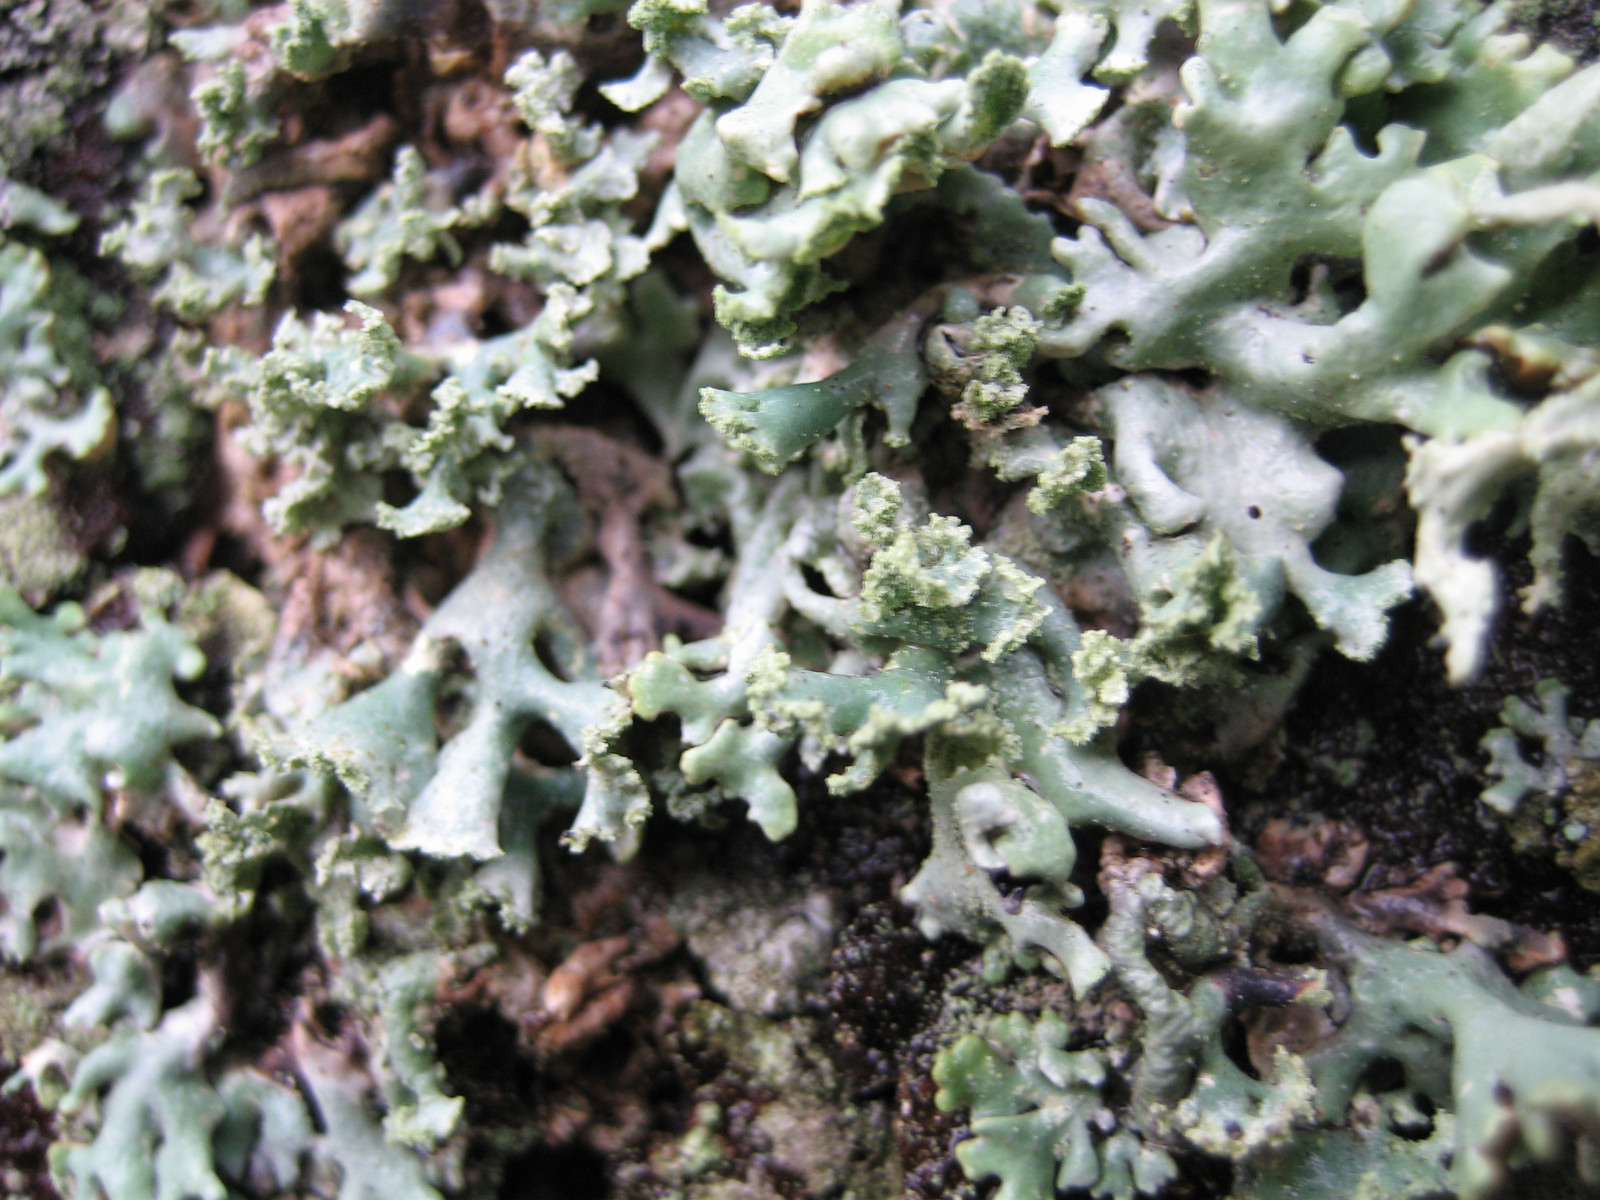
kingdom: Fungi
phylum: Ascomycota
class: Lecanoromycetes
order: Lecanorales
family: Parmeliaceae
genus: Hypogymnia
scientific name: Hypogymnia physodes
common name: almindelig kvistlav
